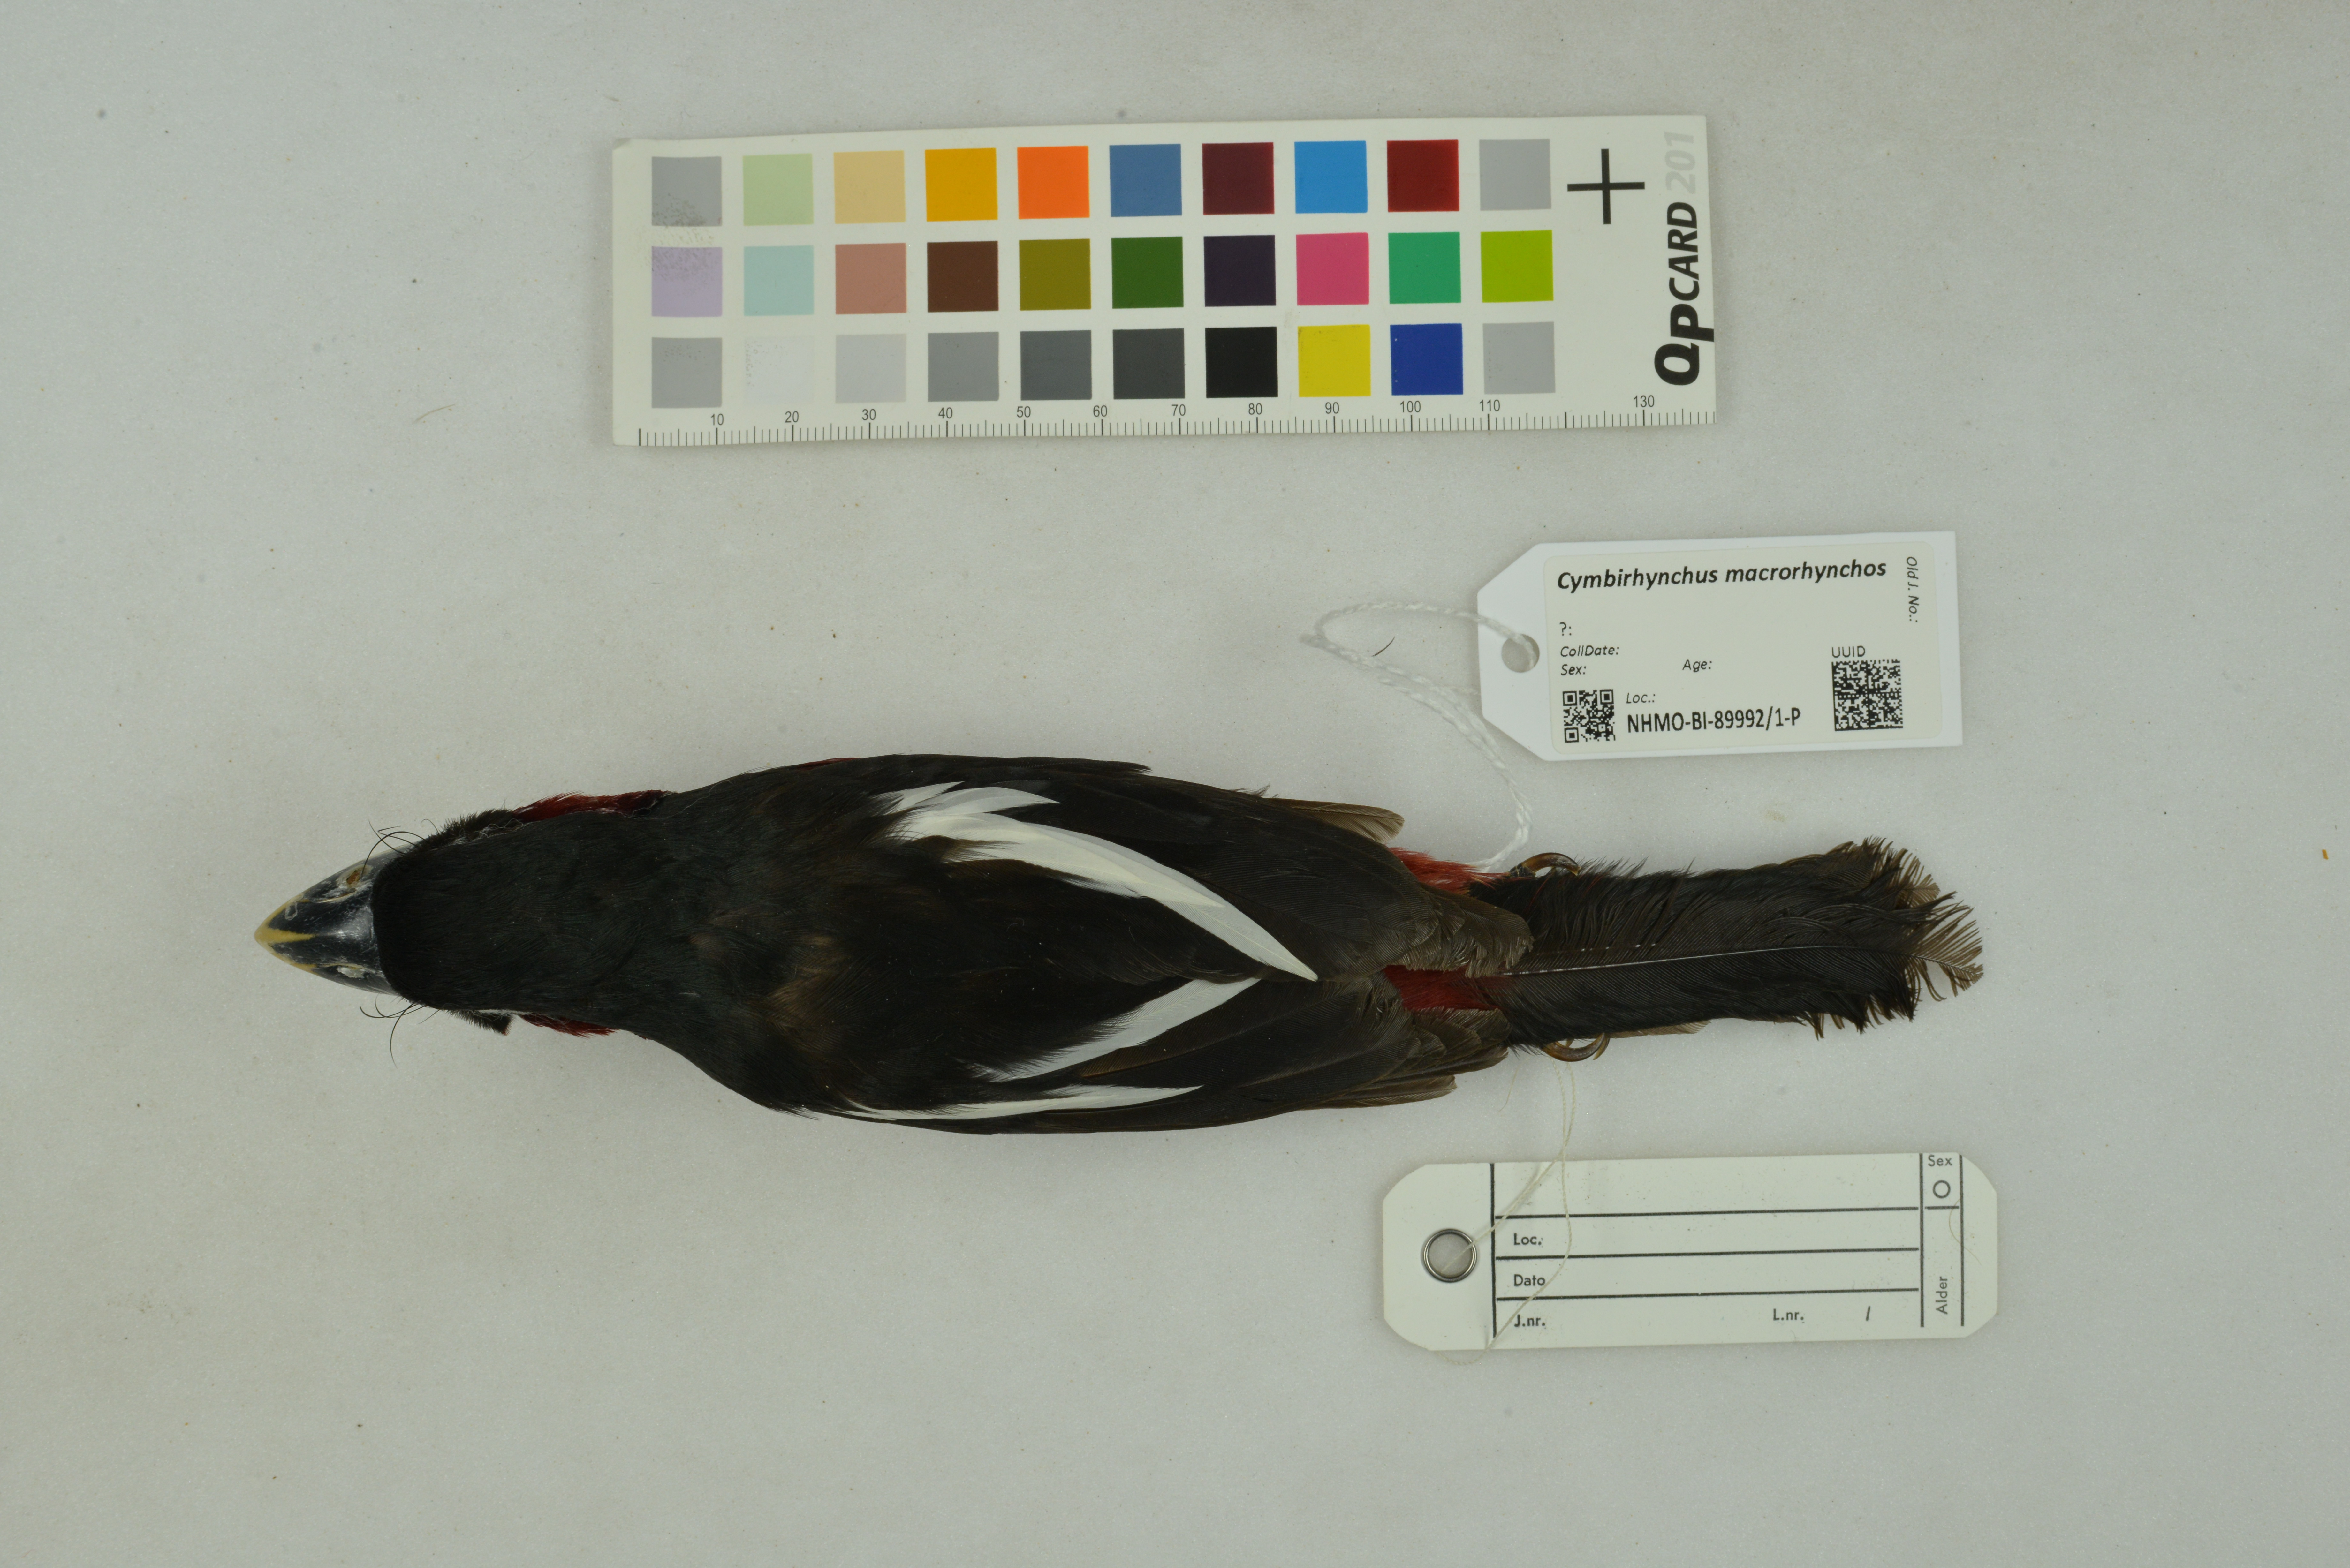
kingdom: Animalia
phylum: Chordata
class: Aves
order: Passeriformes
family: Eurylaimidae
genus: Cymbirhynchus
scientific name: Cymbirhynchus macrorhynchos
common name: Black-and-red broadbill
